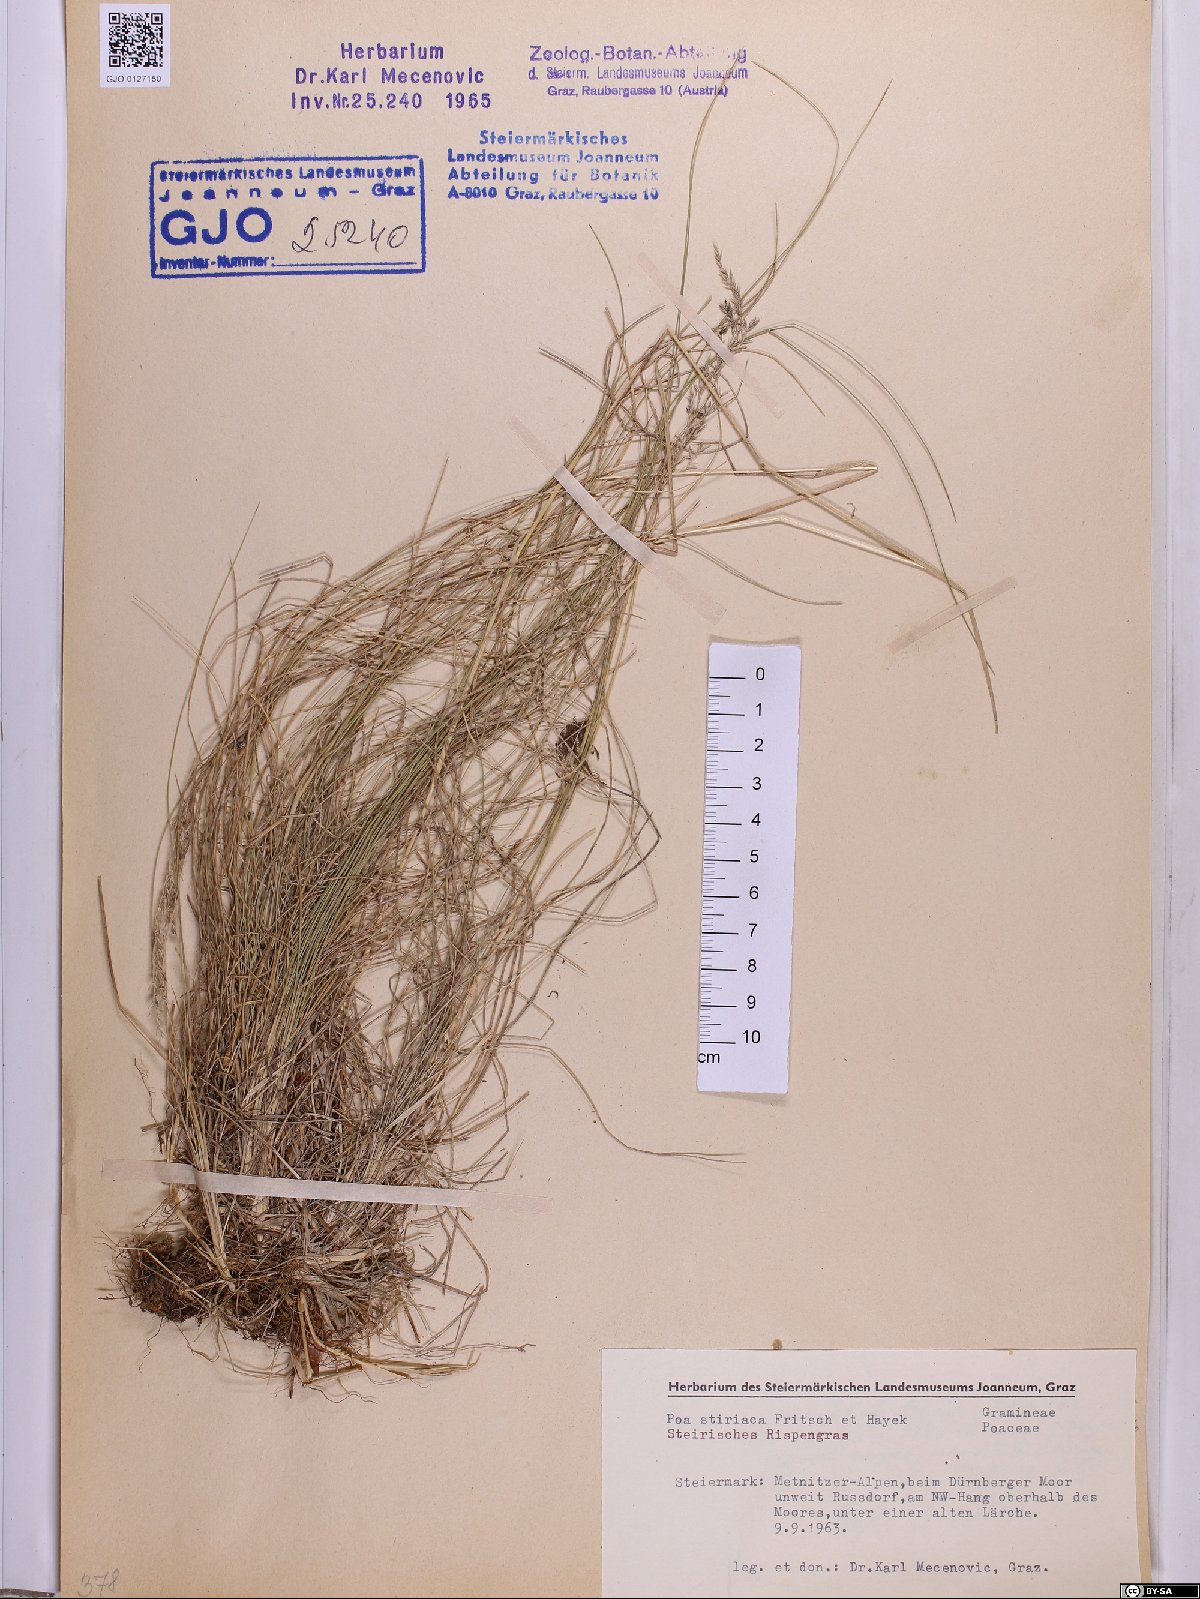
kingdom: Plantae
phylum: Tracheophyta
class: Liliopsida
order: Poales
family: Poaceae
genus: Poa
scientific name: Poa stiriaca
